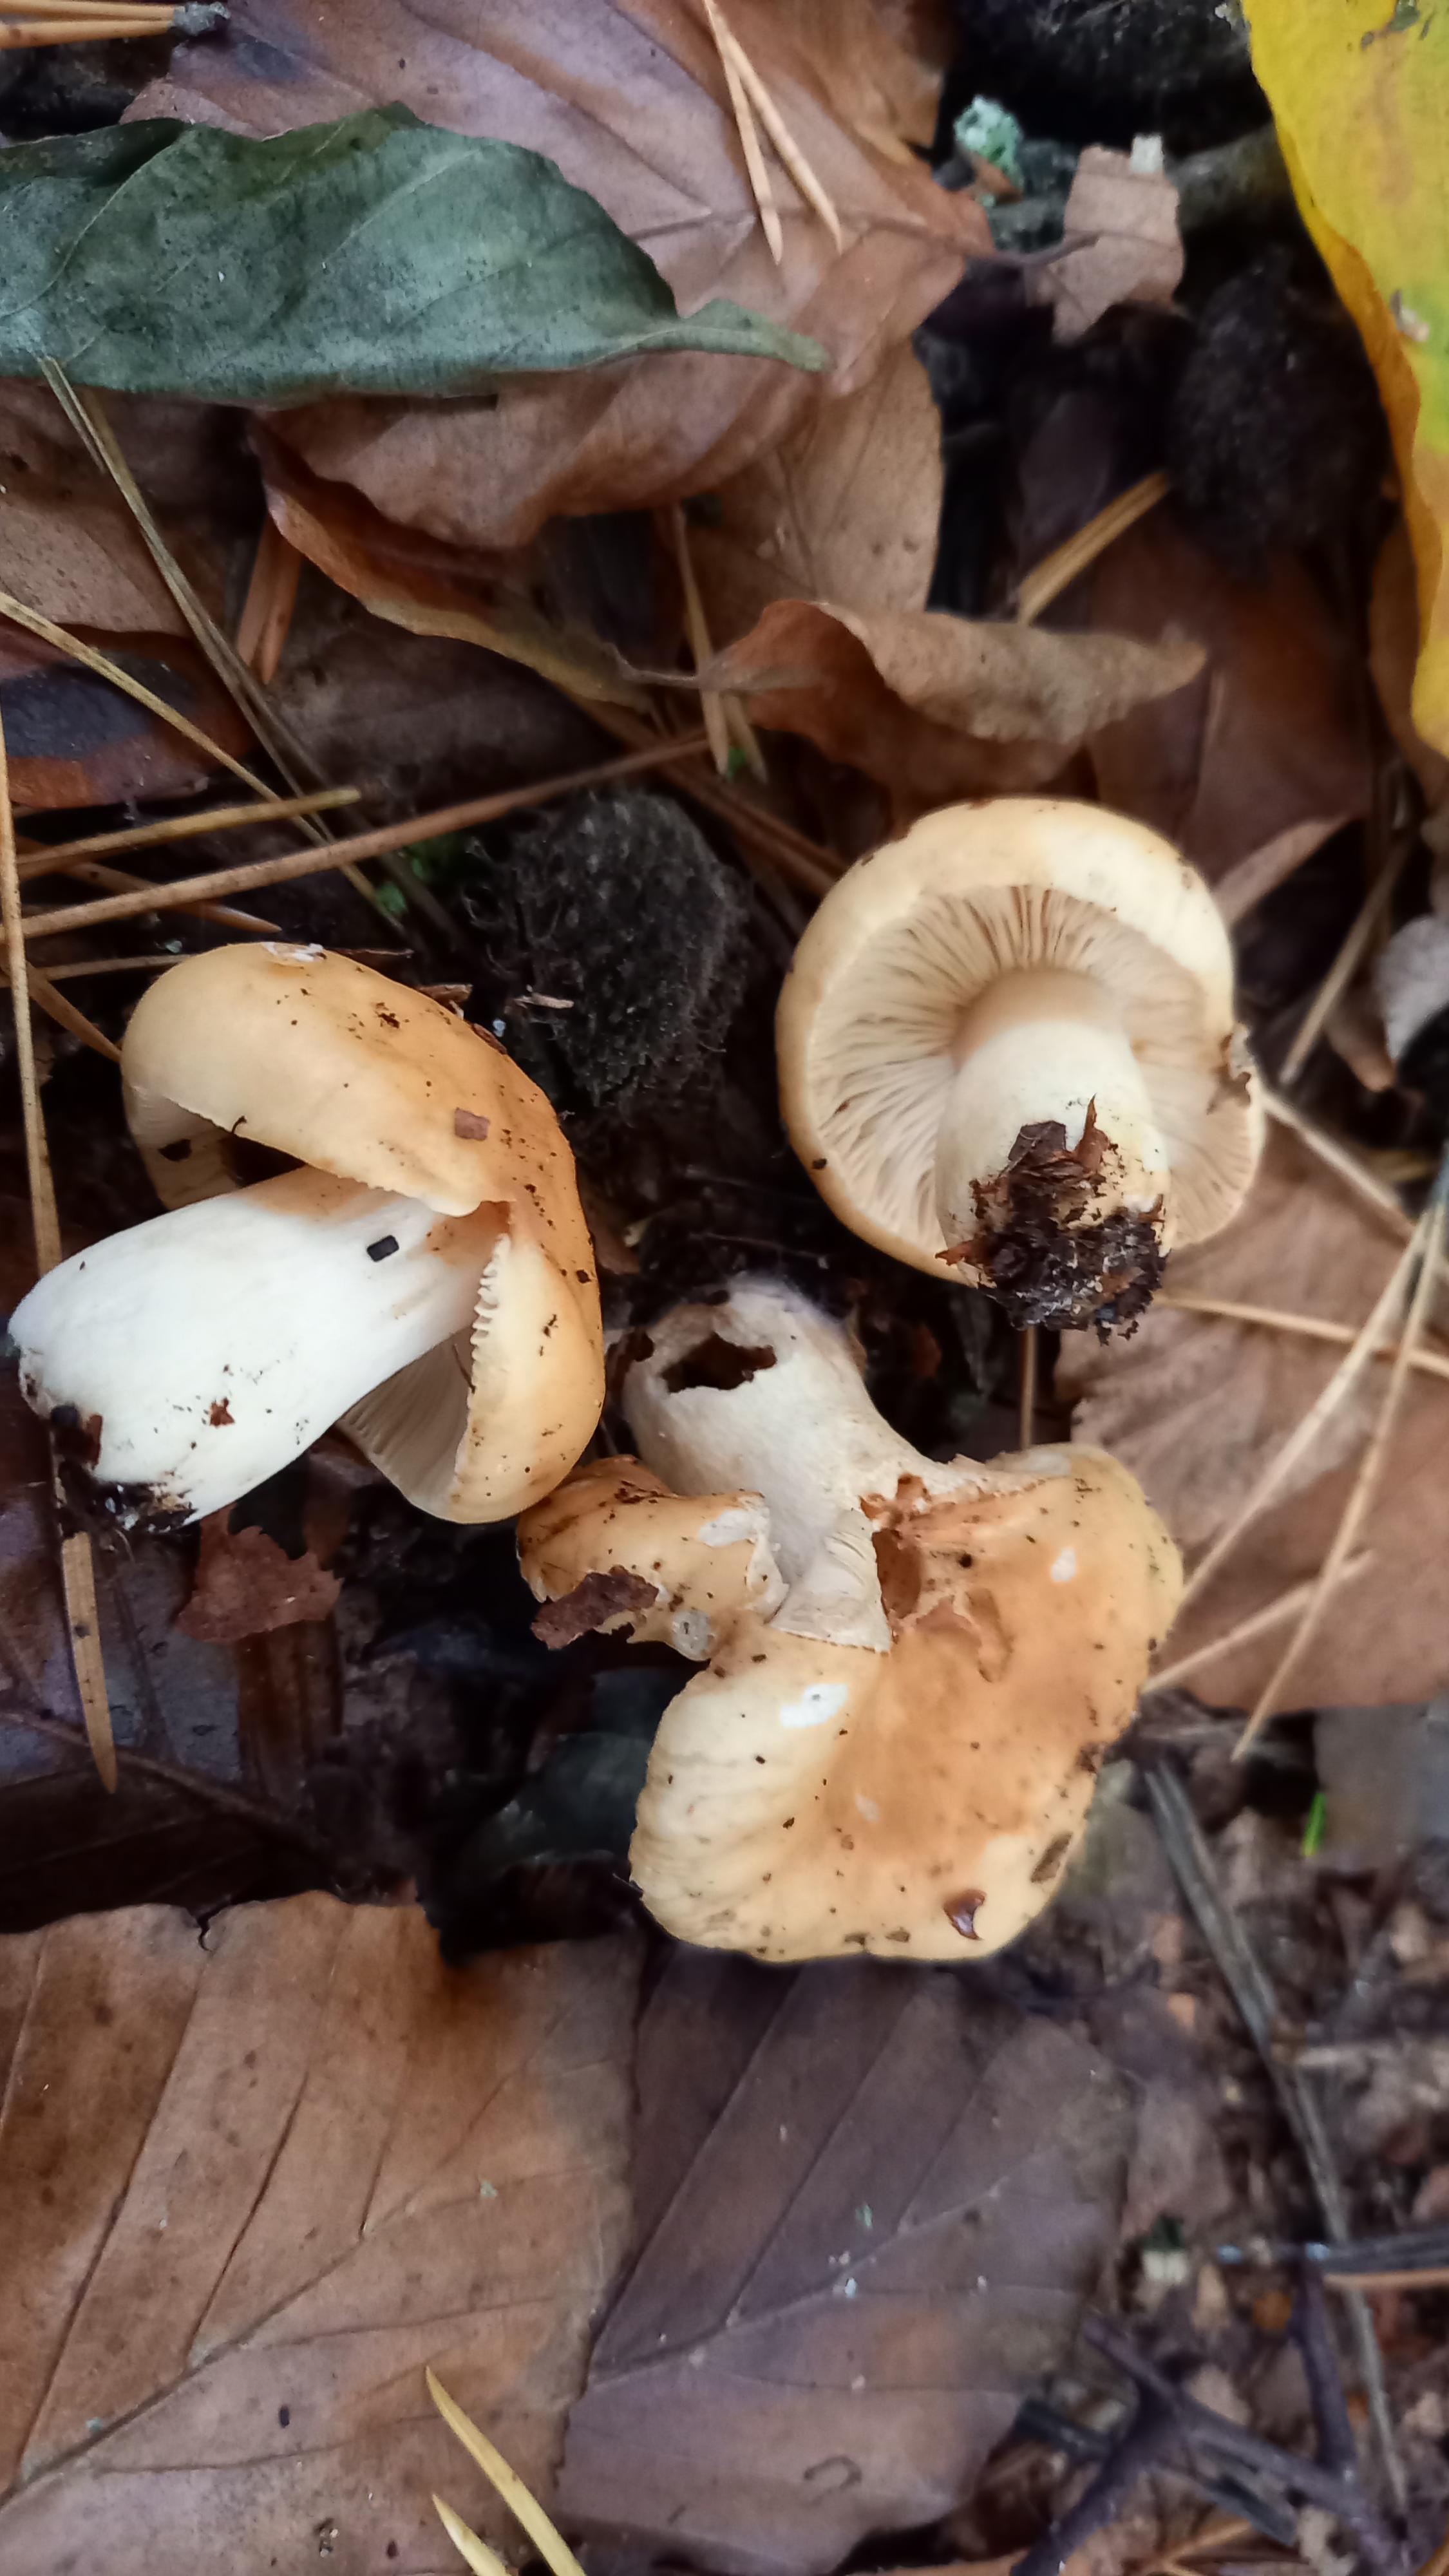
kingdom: Fungi
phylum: Basidiomycota
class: Agaricomycetes
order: Russulales
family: Russulaceae
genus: Russula
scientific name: Russula fellea
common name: galde-skørhat
